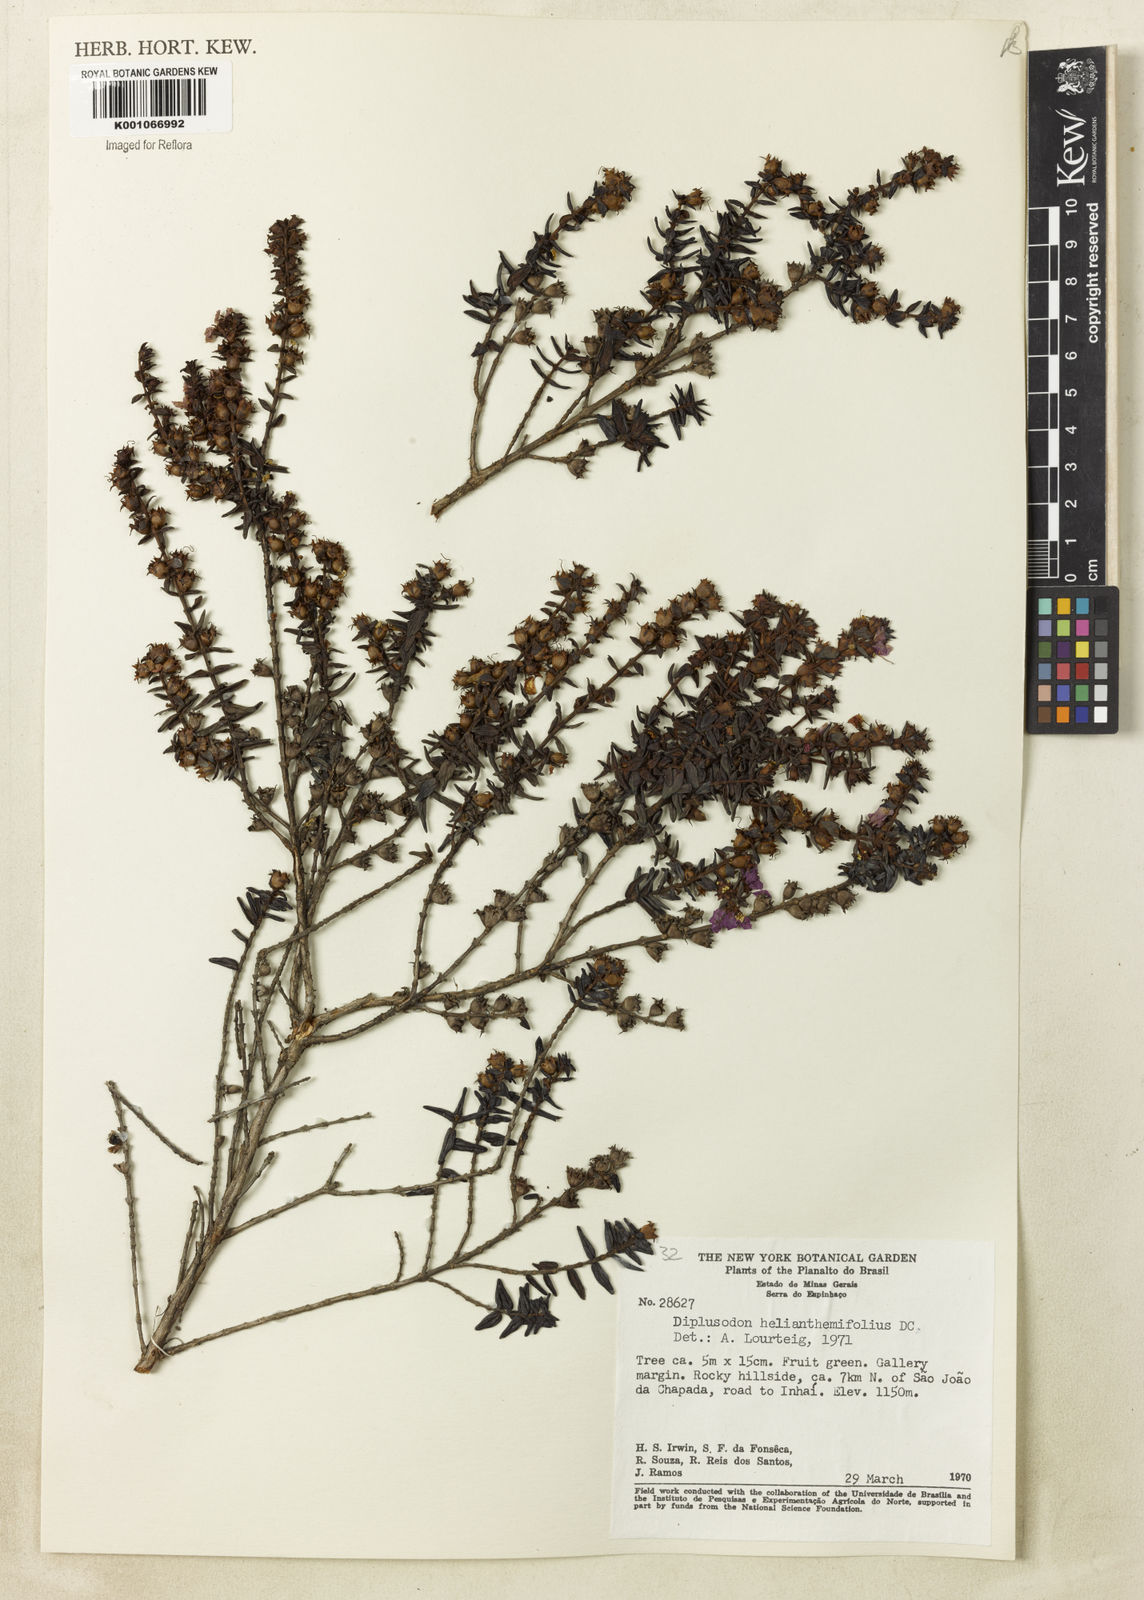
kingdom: Plantae
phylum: Tracheophyta
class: Magnoliopsida
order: Myrtales
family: Lythraceae
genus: Diplusodon
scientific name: Diplusodon helianthemifolius
